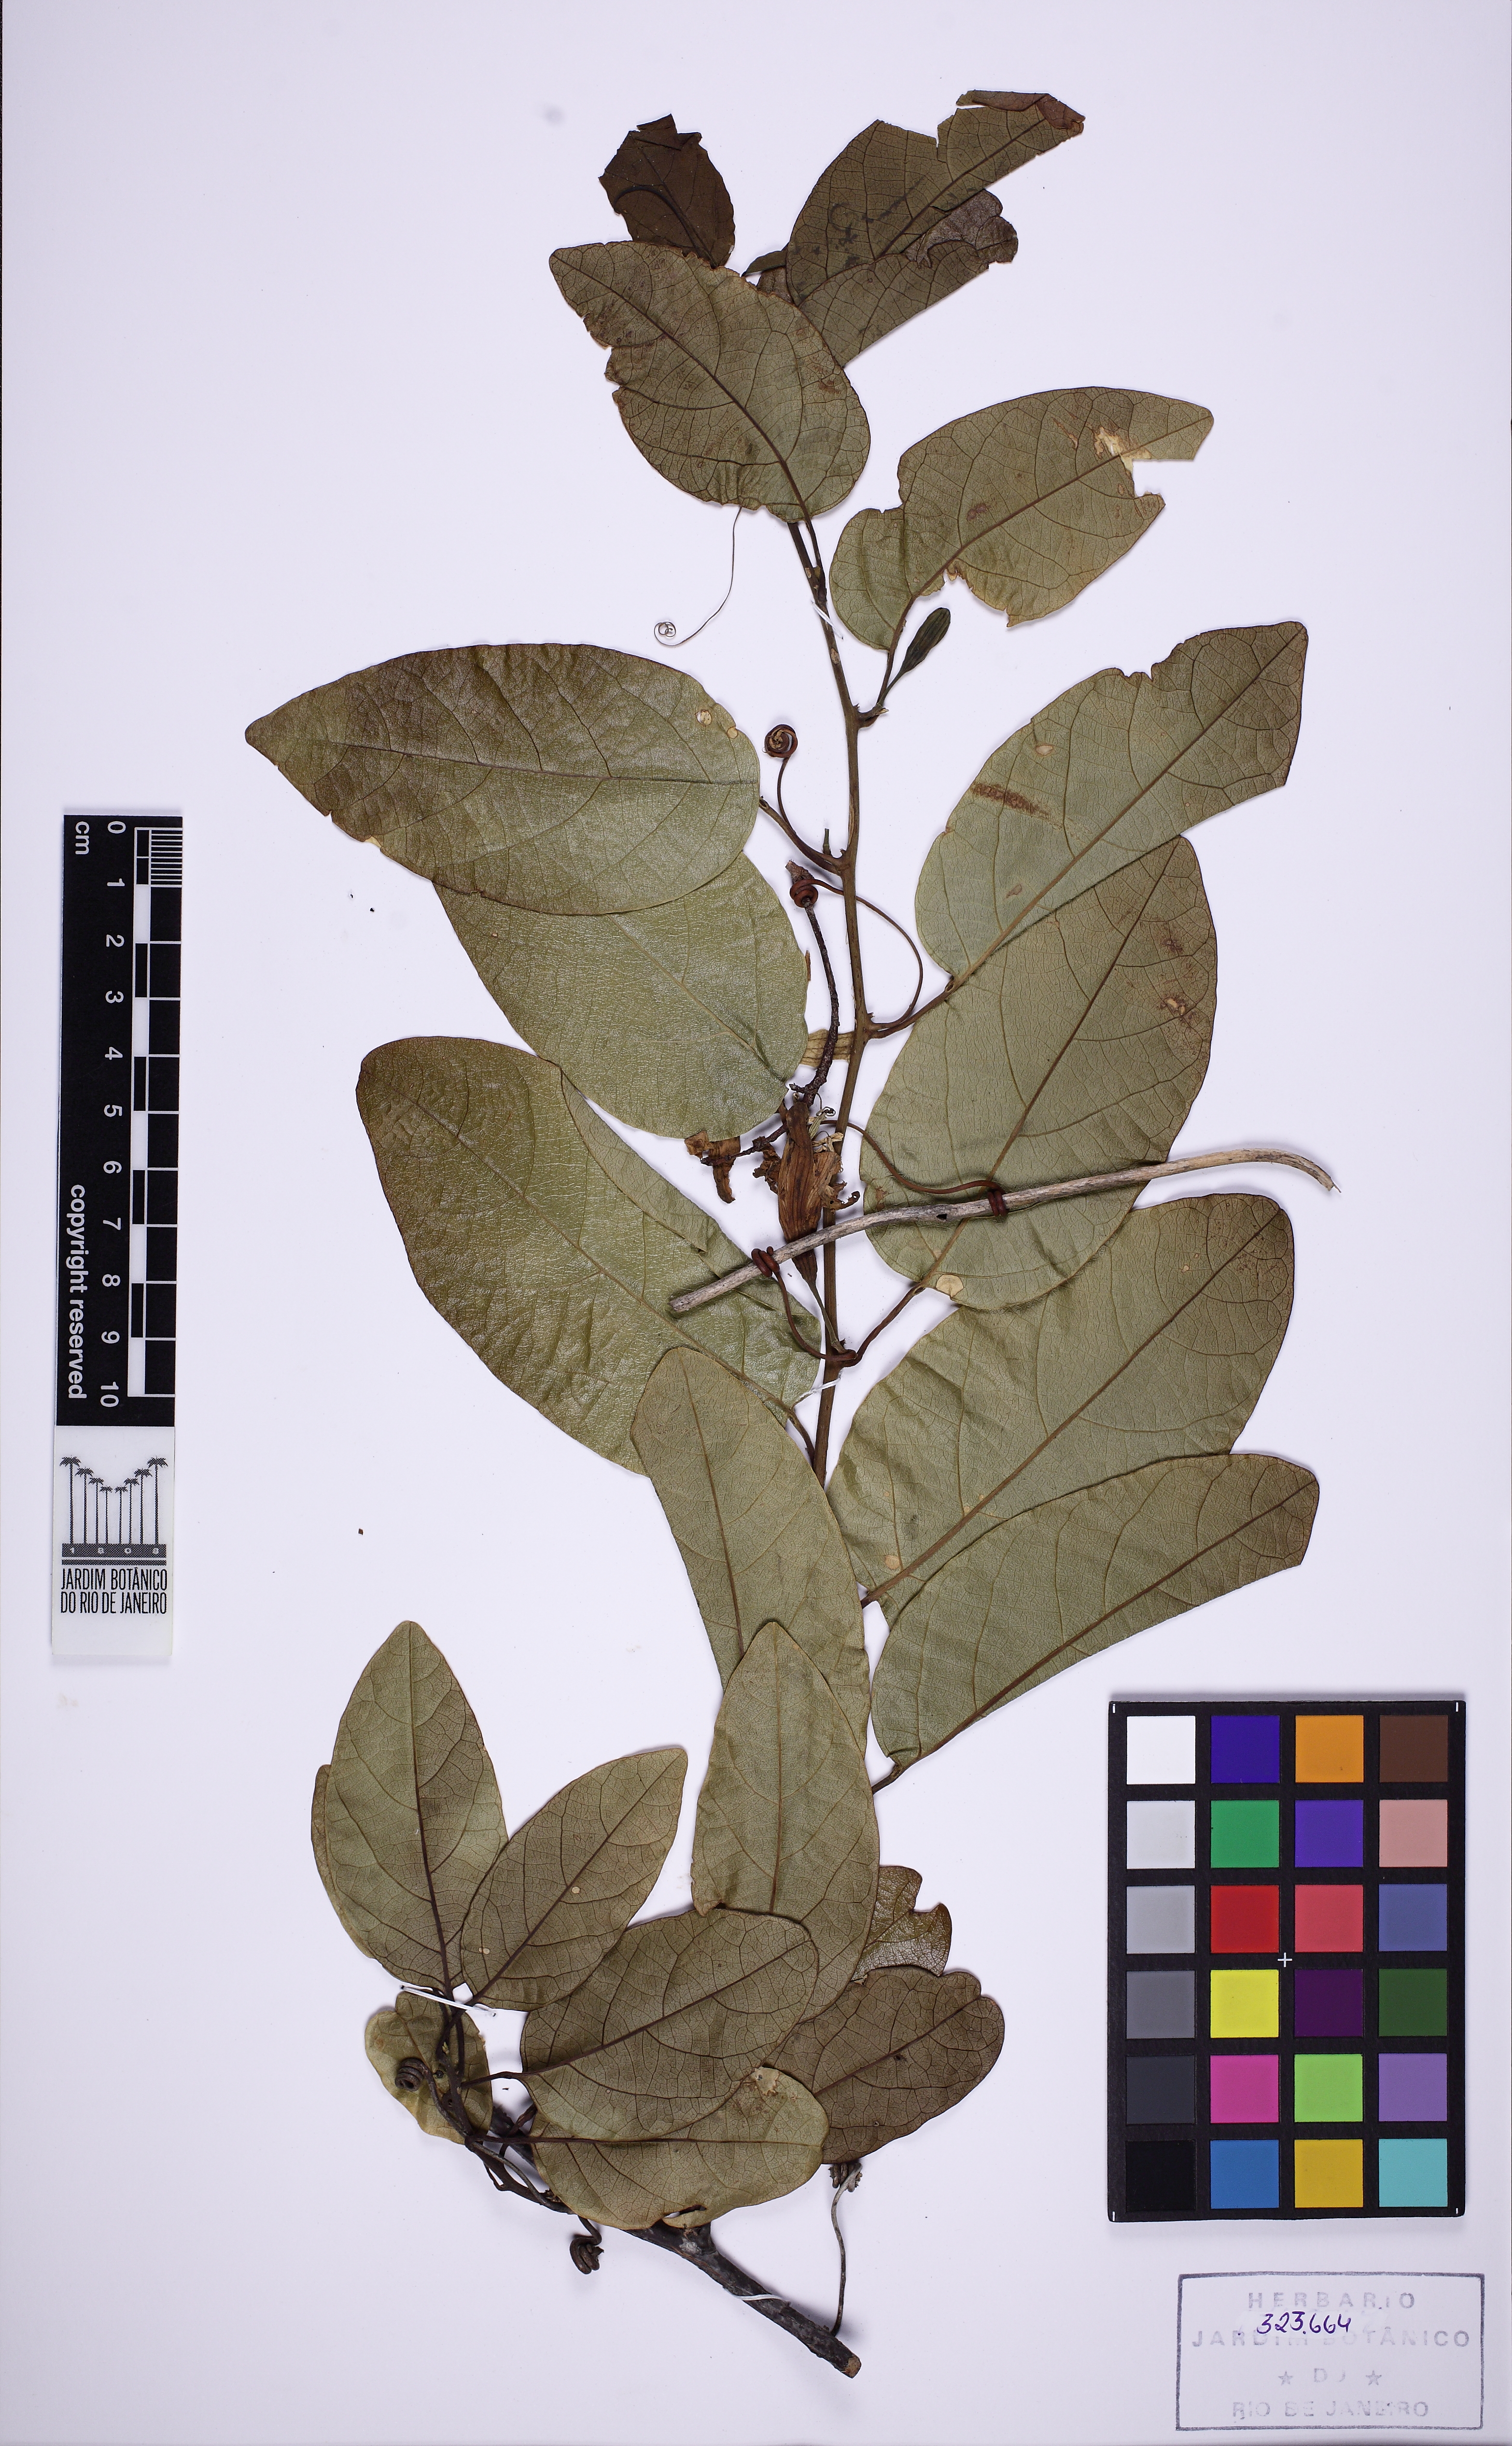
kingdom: Plantae
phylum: Tracheophyta
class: Magnoliopsida
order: Malpighiales
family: Passifloraceae
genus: Passiflora
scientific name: Passiflora pentagona
